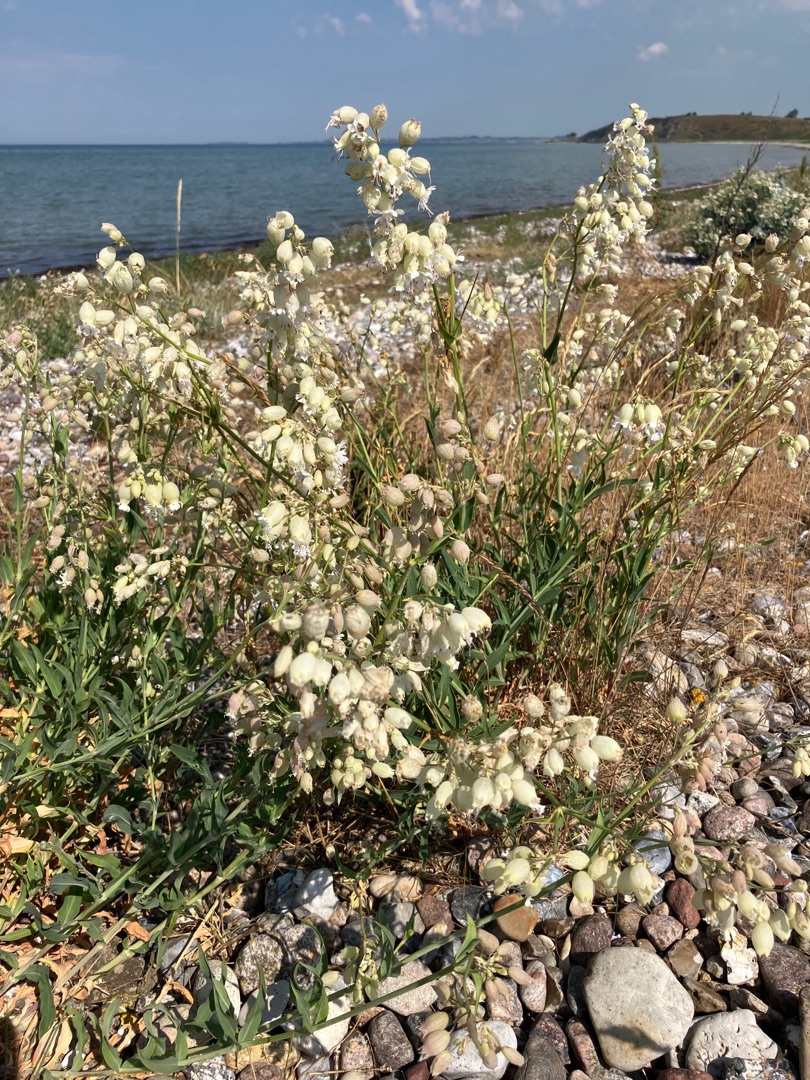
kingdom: Plantae
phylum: Tracheophyta
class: Magnoliopsida
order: Caryophyllales
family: Caryophyllaceae
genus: Silene
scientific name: Silene vulgaris
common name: Blæresmælde
